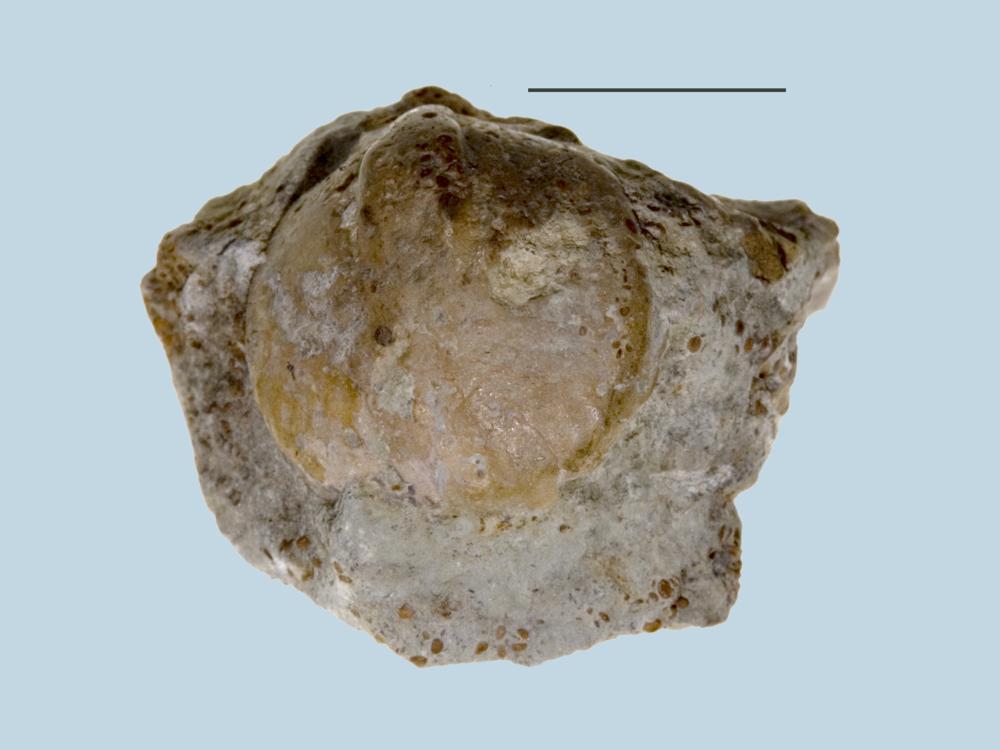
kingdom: Animalia
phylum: Brachiopoda
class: Rhynchonellata
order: Rhynchonellida
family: Rhynchonellidae
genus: Rhynchonella
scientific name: Rhynchonella
